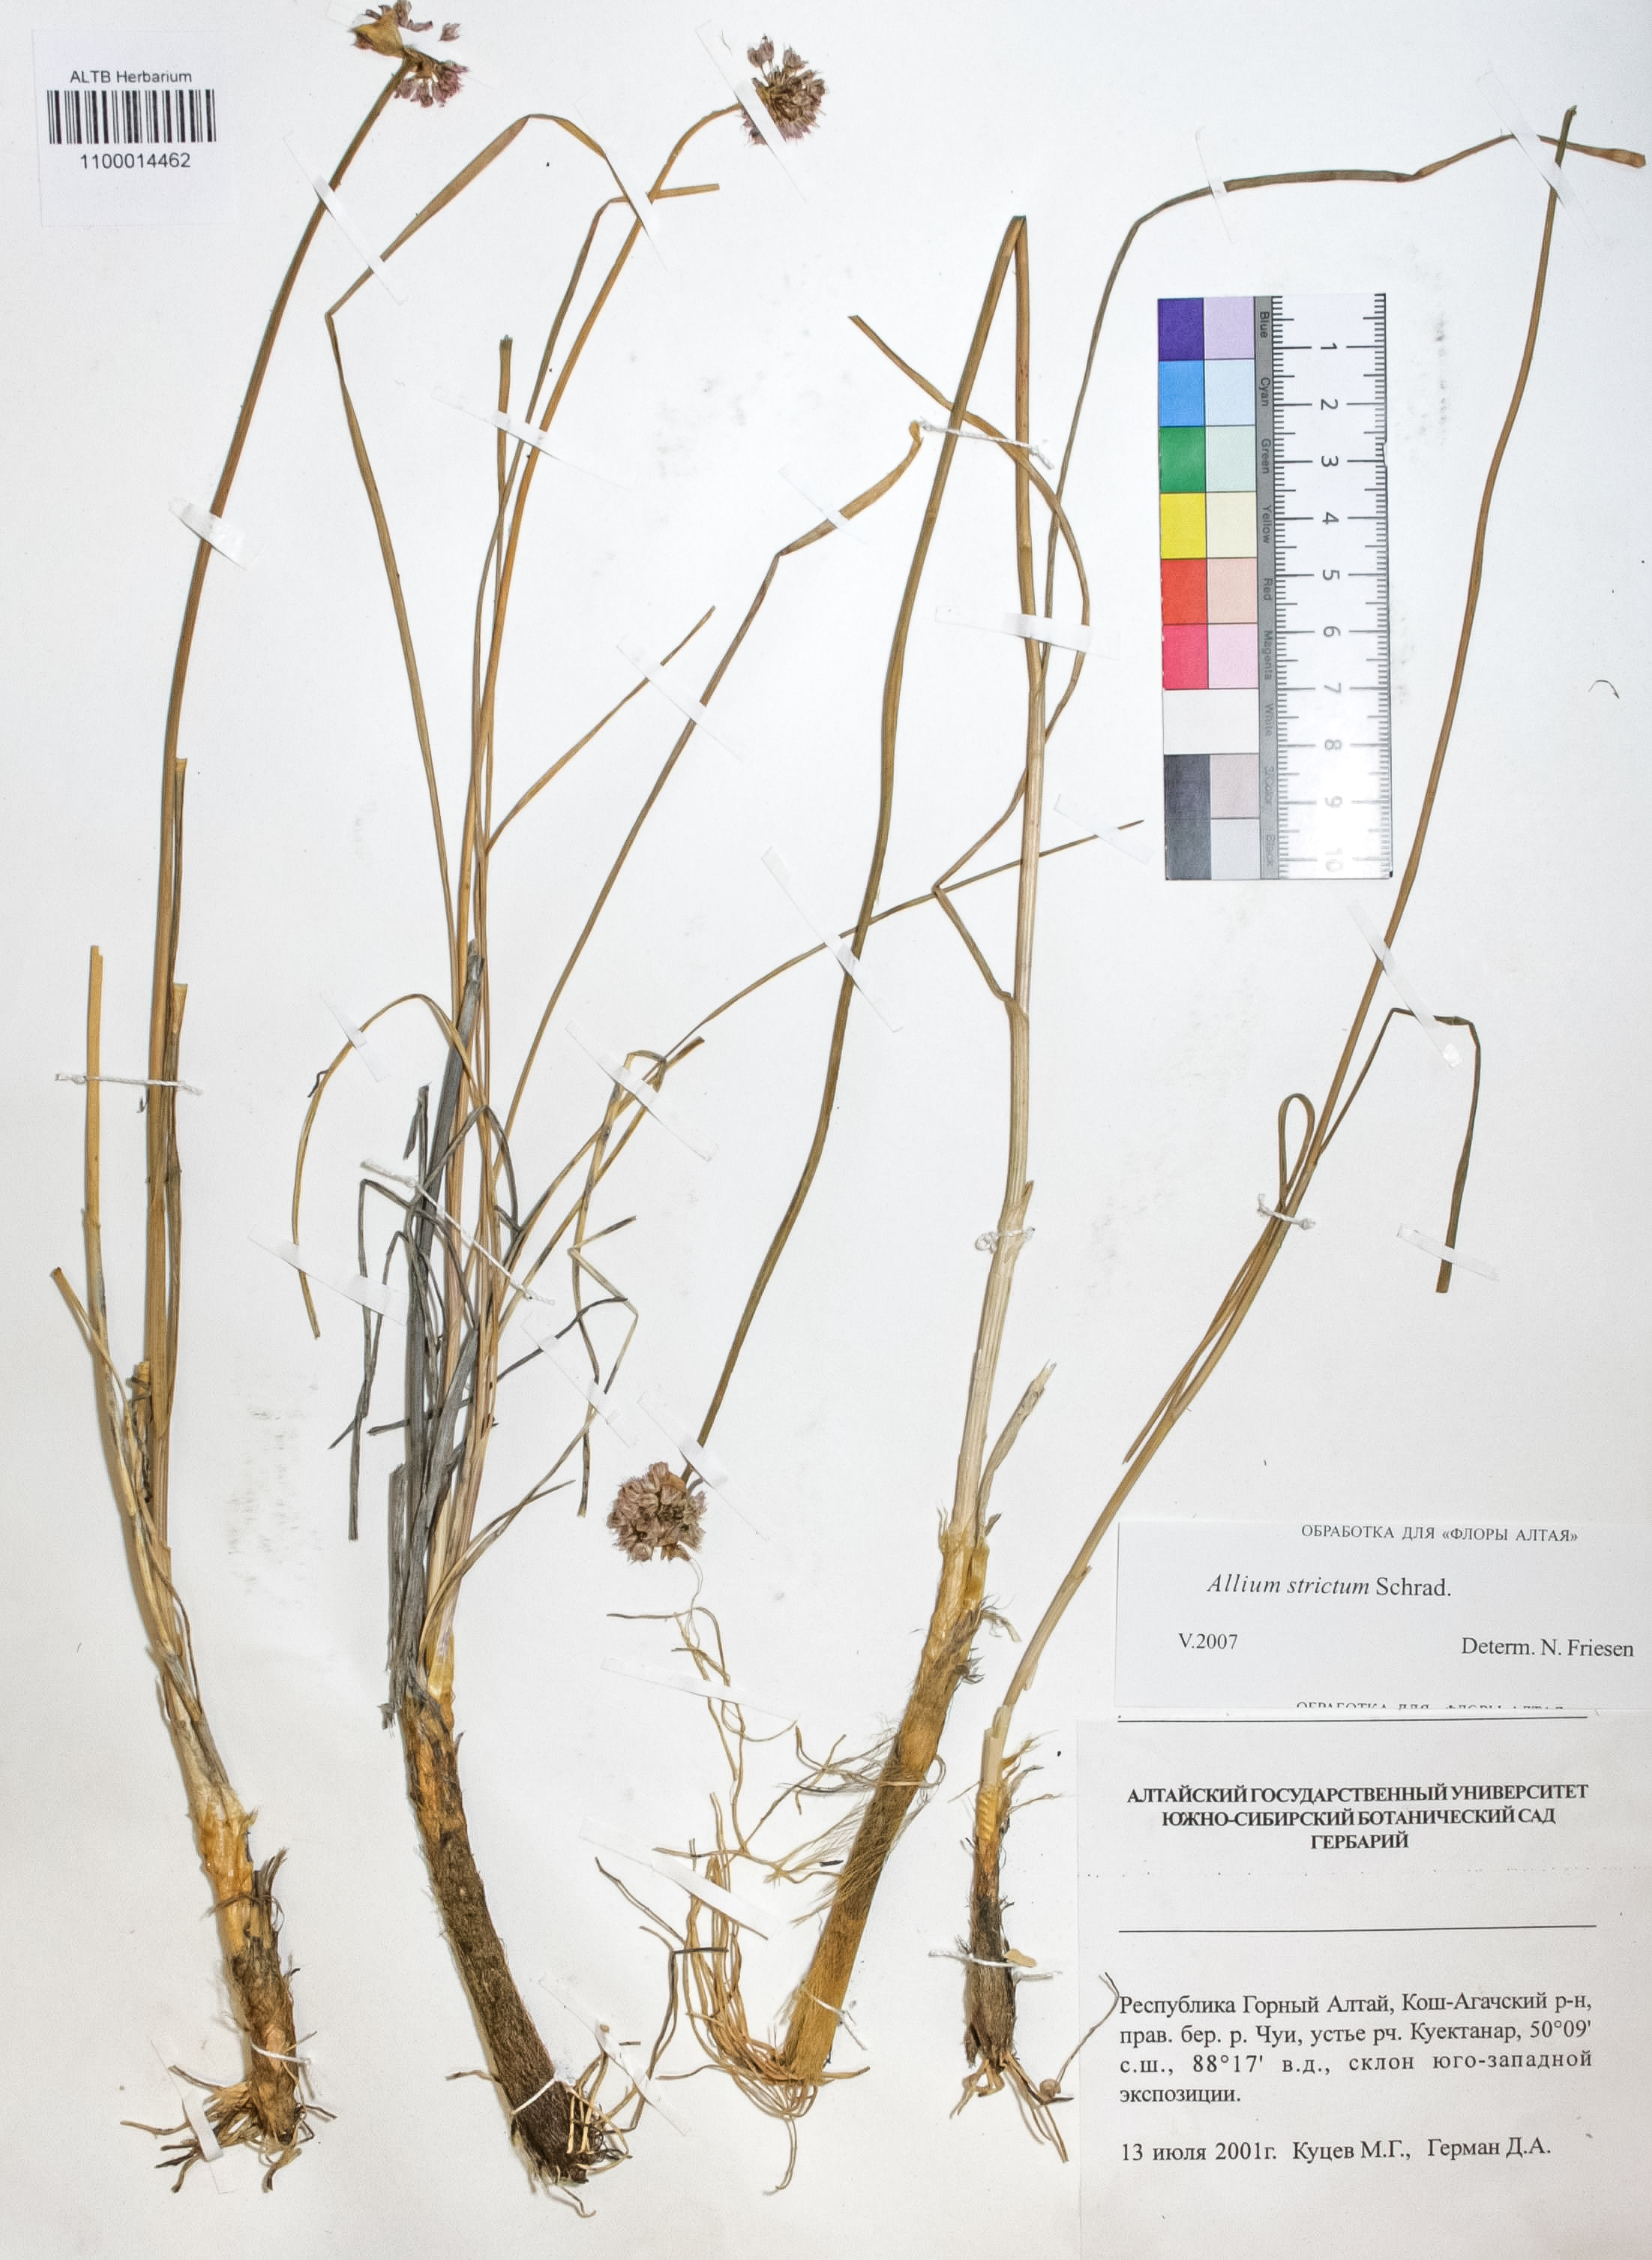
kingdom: Plantae
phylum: Tracheophyta
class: Liliopsida
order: Asparagales
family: Amaryllidaceae
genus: Allium
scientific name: Allium strictum
